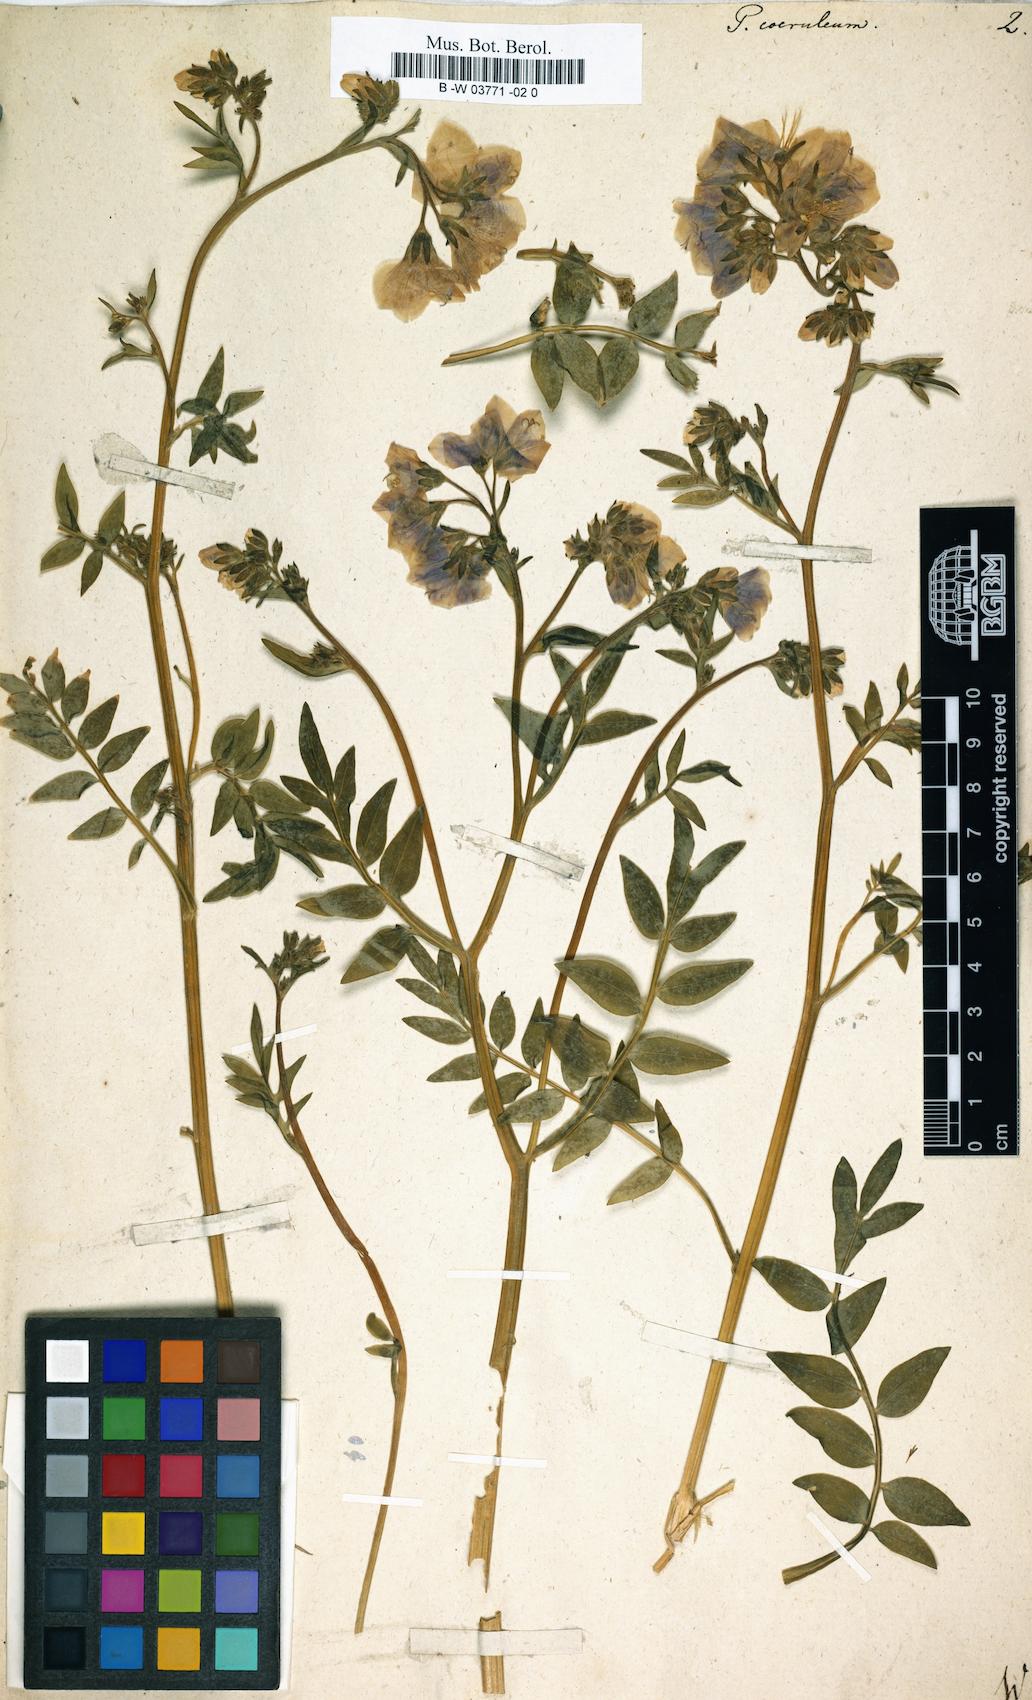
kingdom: Plantae
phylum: Tracheophyta
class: Magnoliopsida
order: Ericales
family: Polemoniaceae
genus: Polemonium
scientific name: Polemonium caeruleum
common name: Jacob's-ladder
